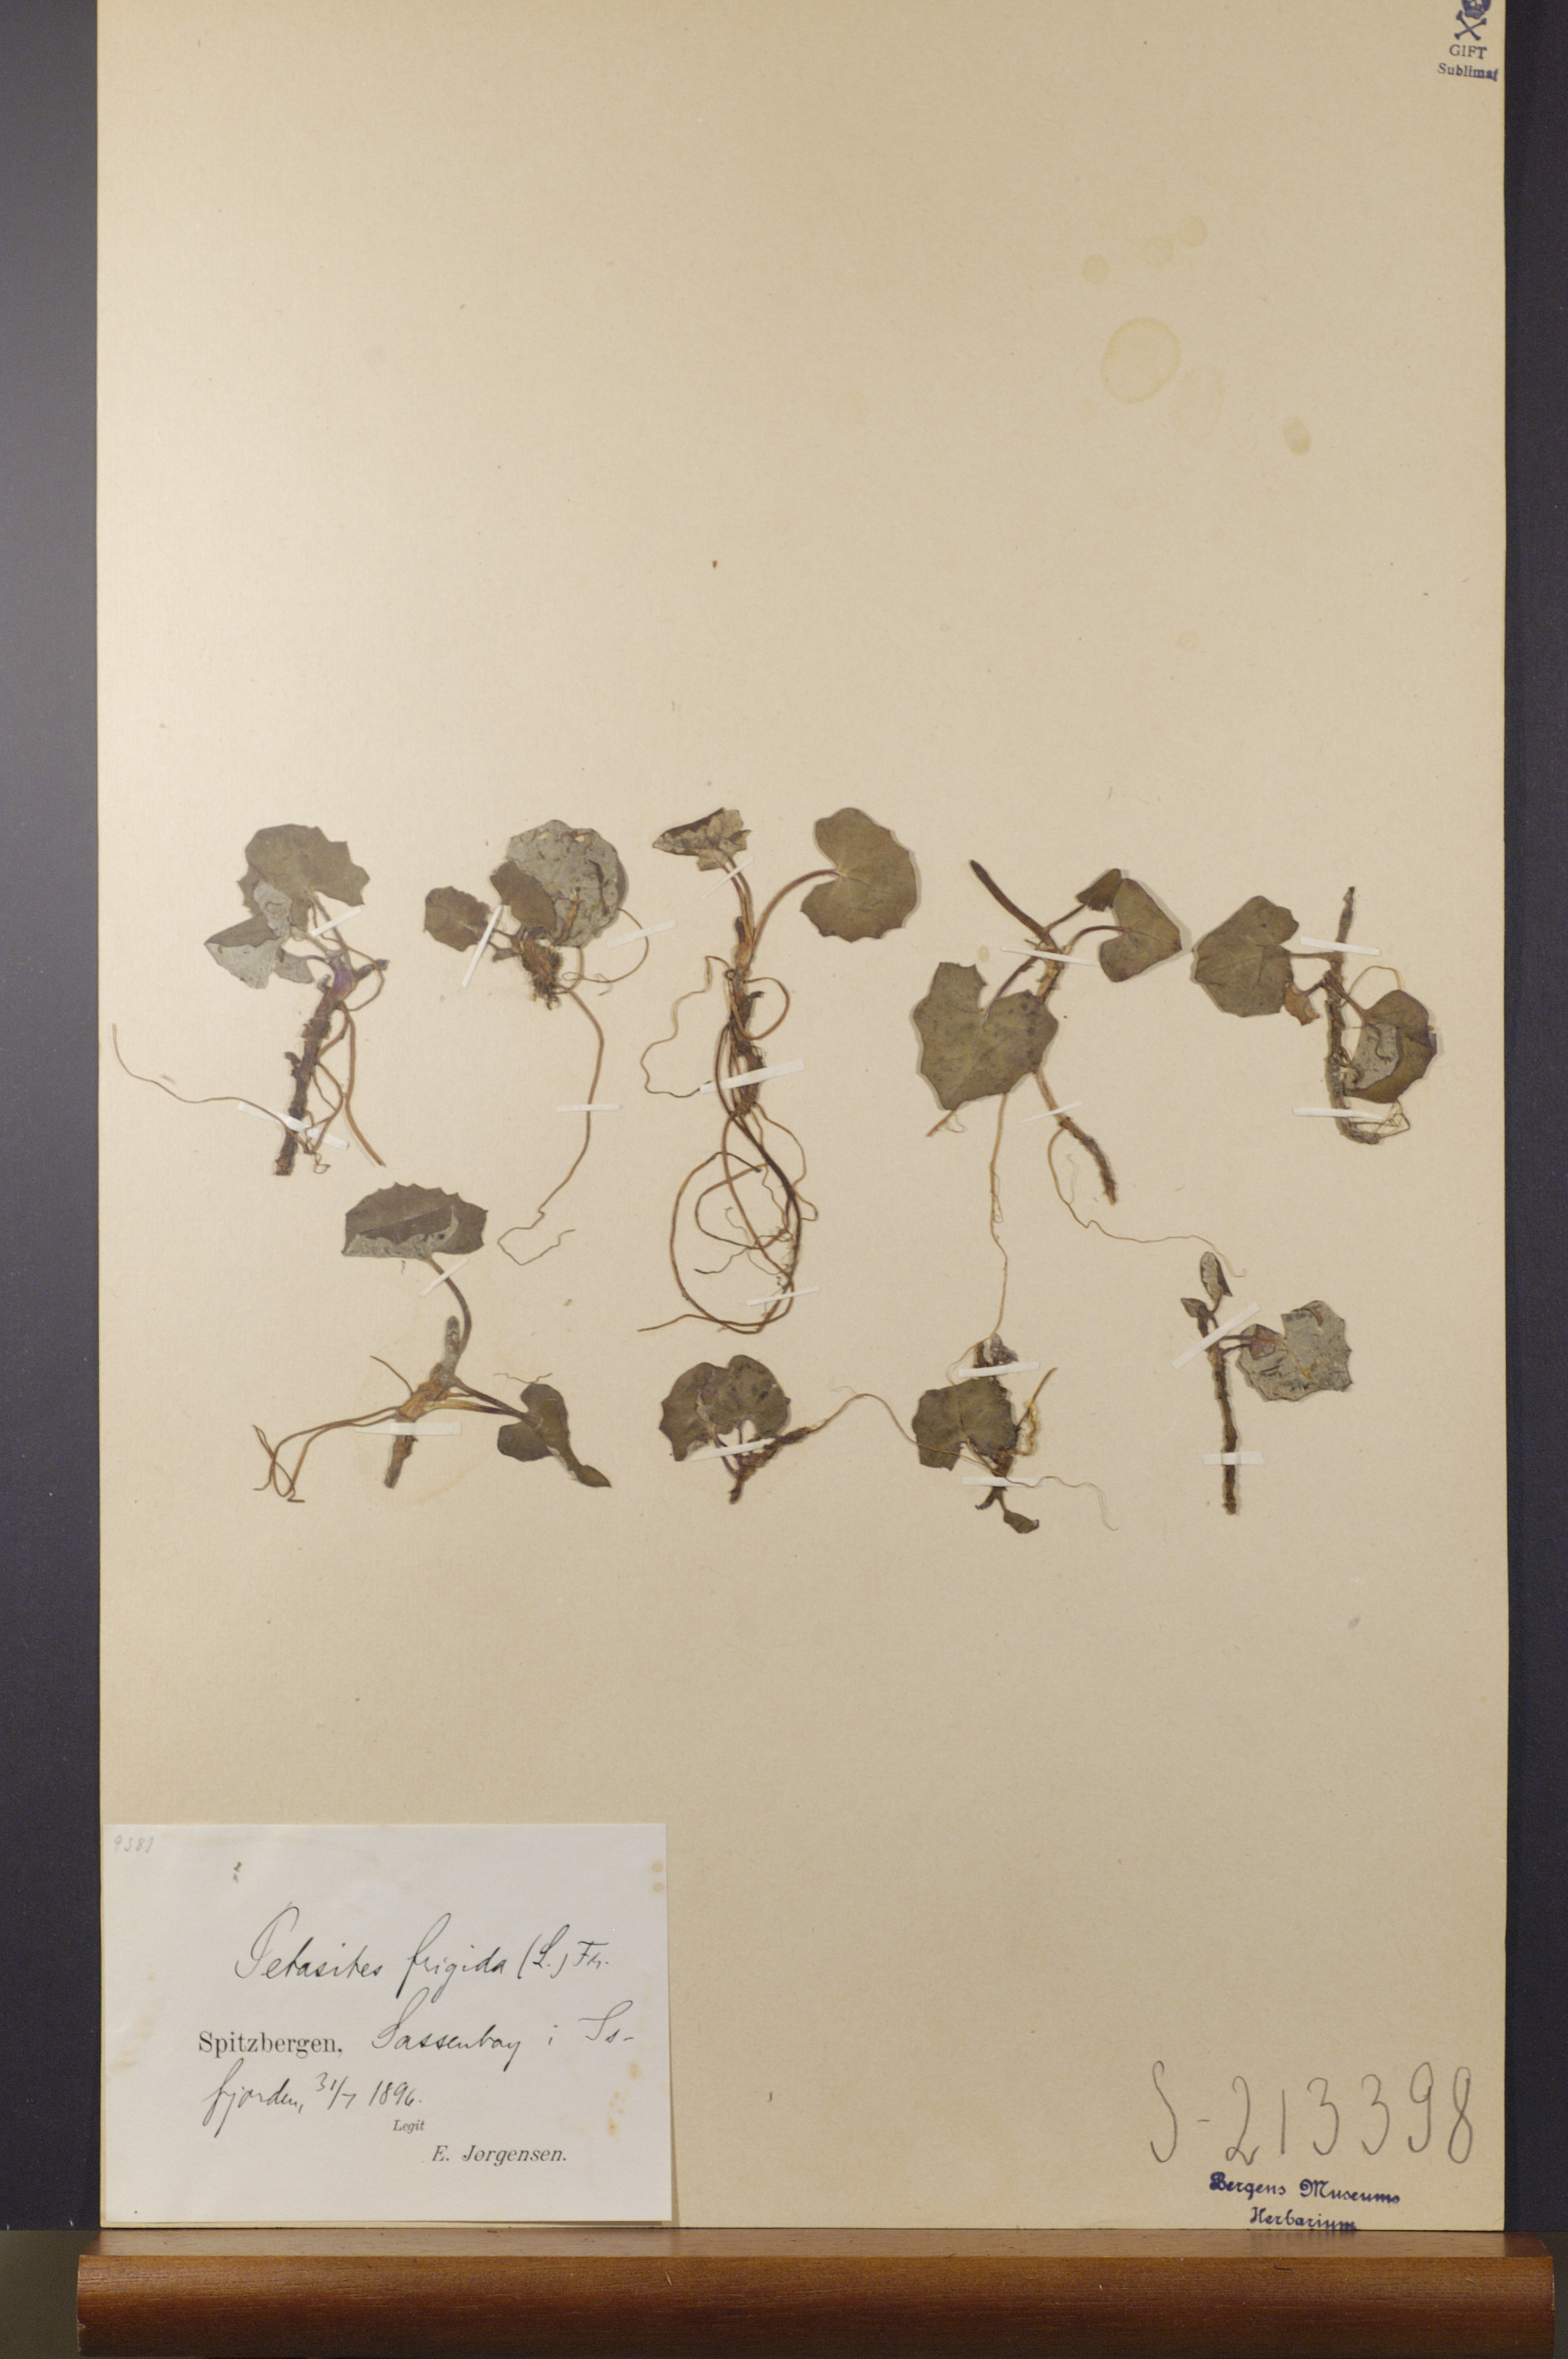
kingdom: Plantae
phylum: Tracheophyta
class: Magnoliopsida
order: Asterales
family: Asteraceae
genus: Petasites
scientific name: Petasites frigidus
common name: Arctic butterbur
